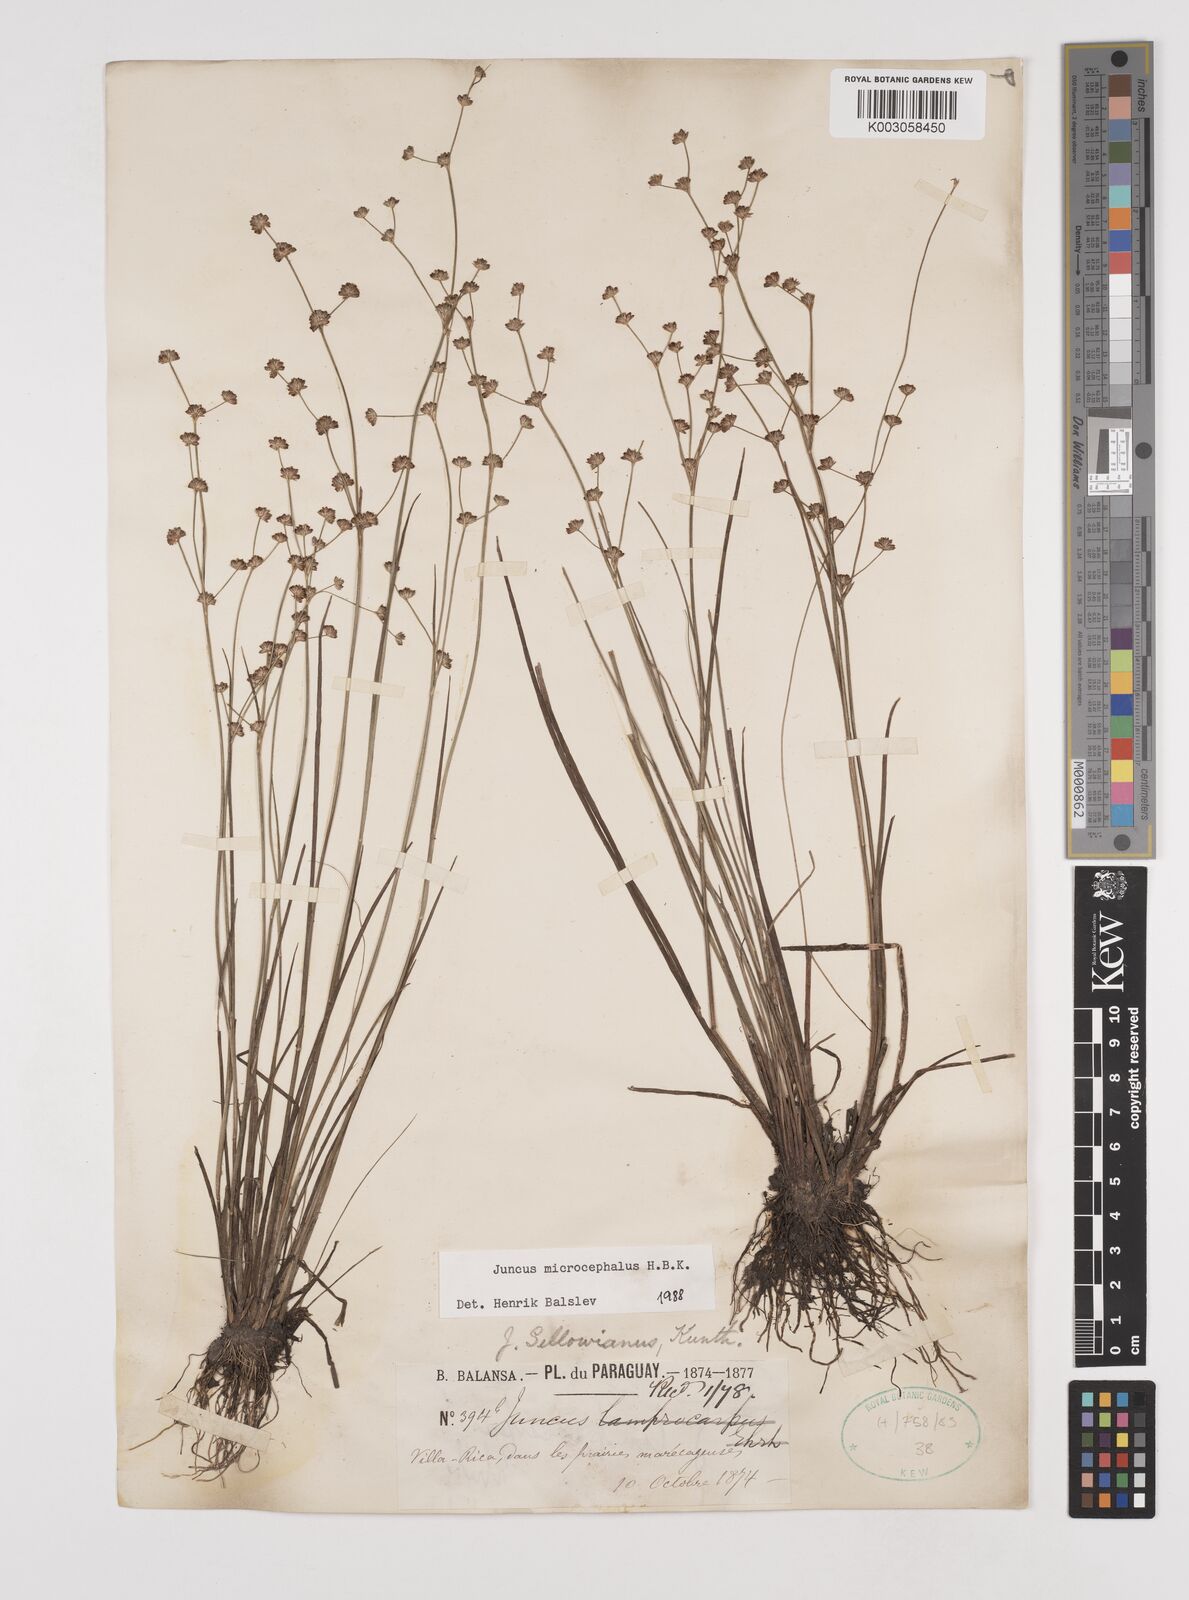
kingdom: Plantae
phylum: Tracheophyta
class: Liliopsida
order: Poales
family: Juncaceae
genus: Juncus
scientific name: Juncus microcephalus
